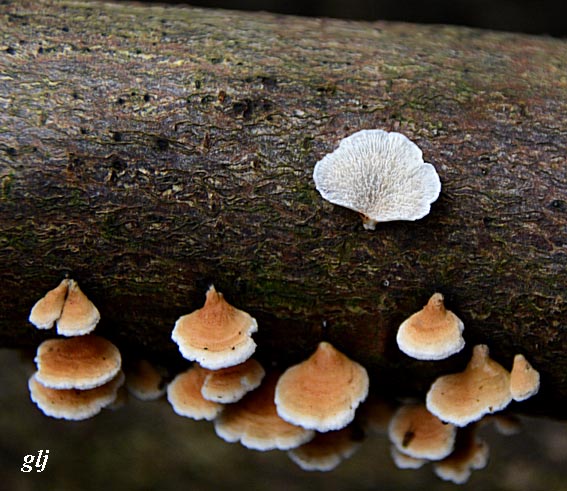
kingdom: Fungi
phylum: Basidiomycota
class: Agaricomycetes
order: Amylocorticiales
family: Amylocorticiaceae
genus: Plicaturopsis
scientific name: Plicaturopsis crispa
